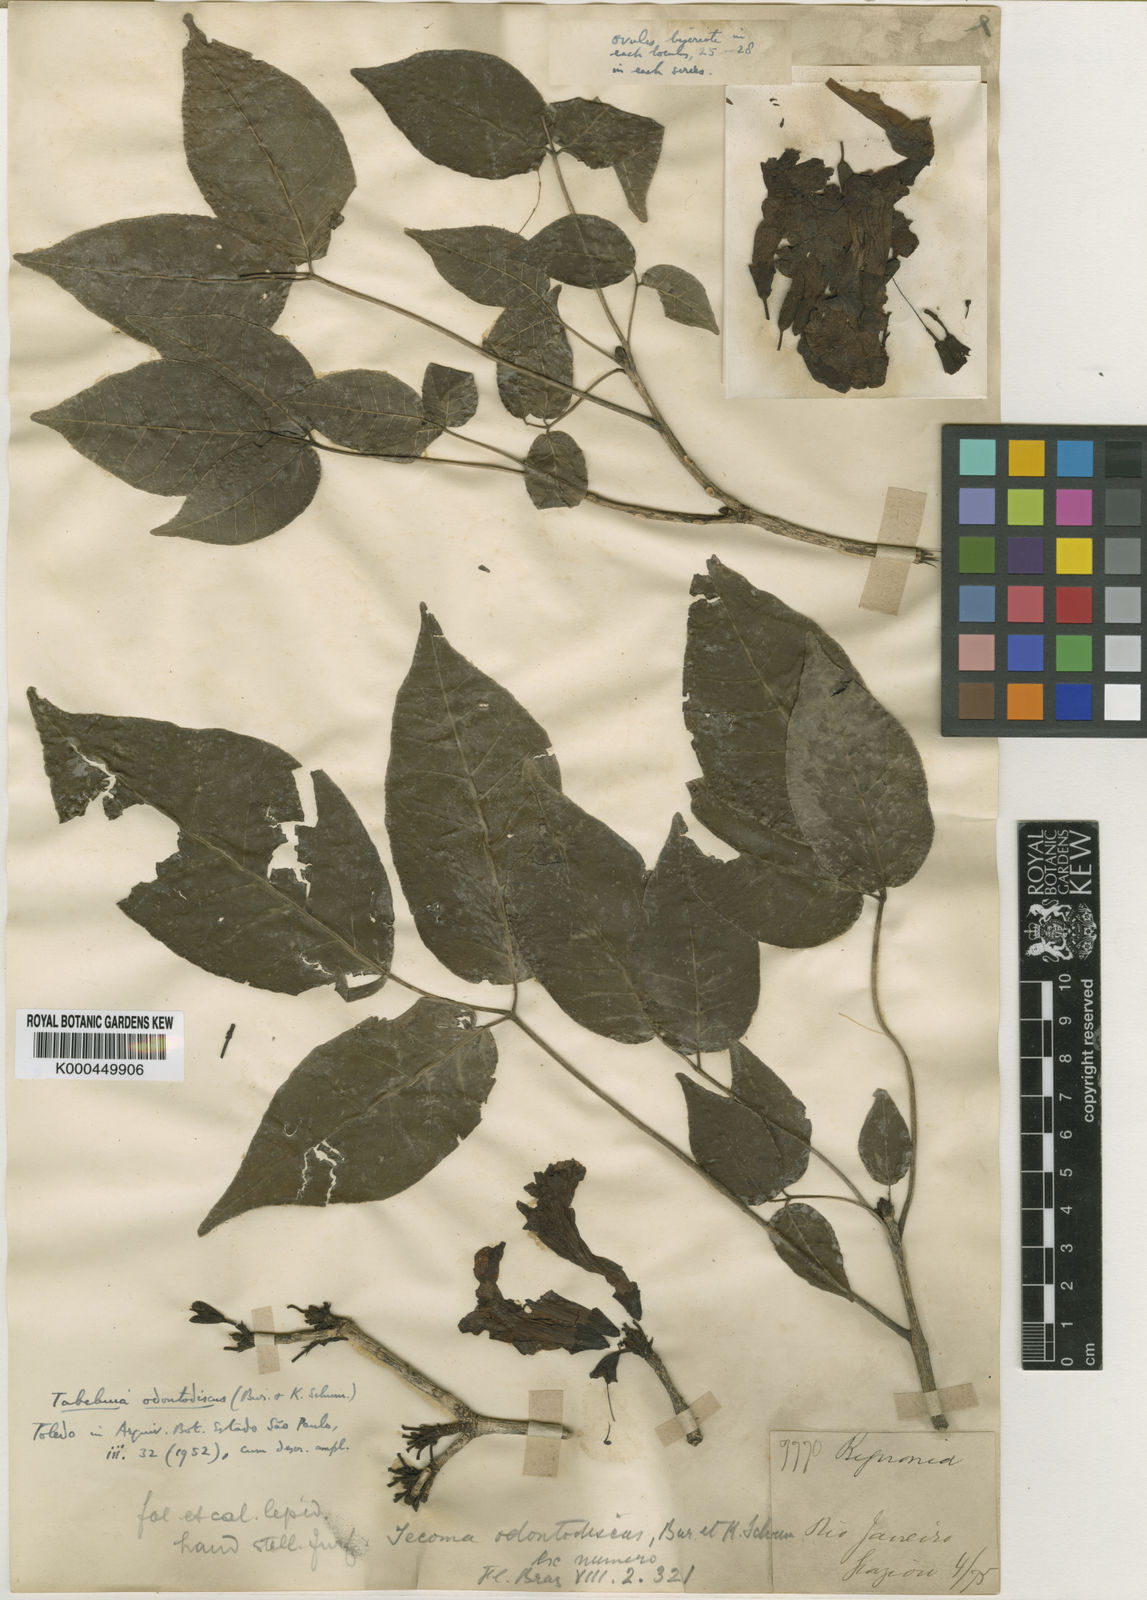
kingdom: Plantae
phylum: Tracheophyta
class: Magnoliopsida
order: Lamiales
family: Bignoniaceae
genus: Tabebuia
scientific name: Tabebuia roseoalba
